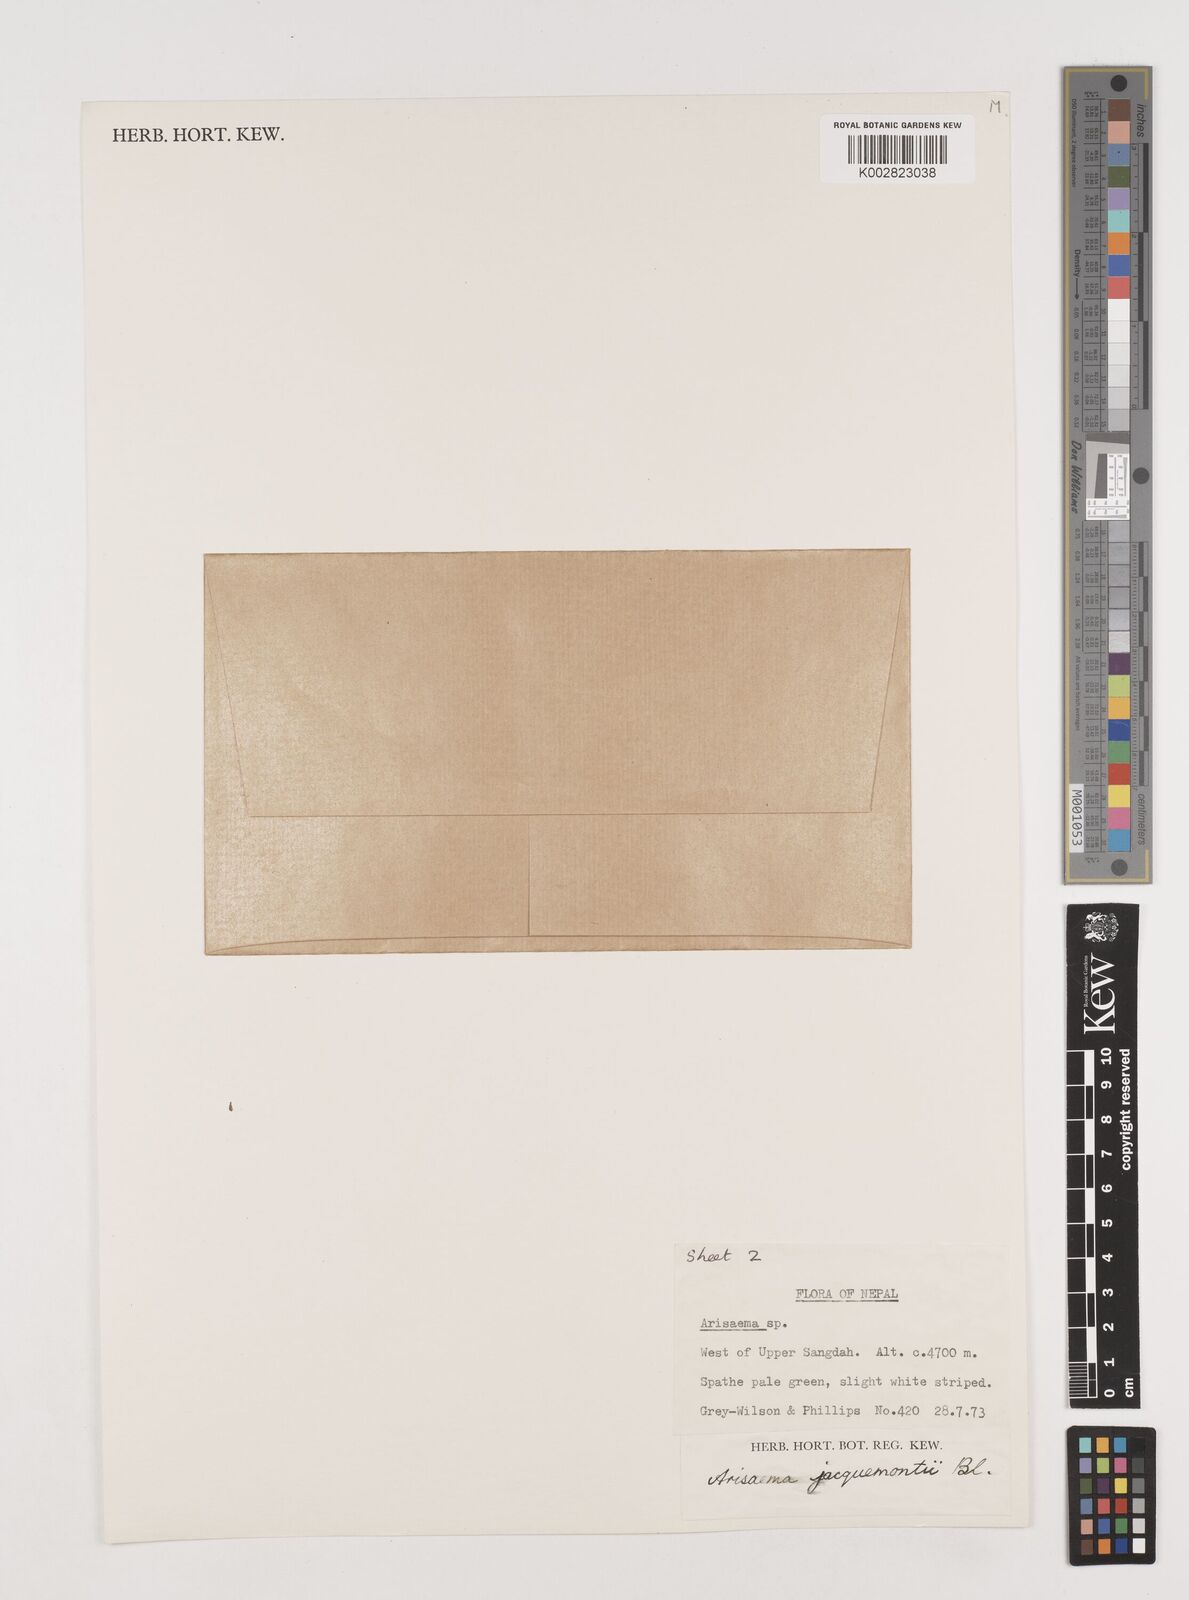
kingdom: Plantae
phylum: Tracheophyta
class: Liliopsida
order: Alismatales
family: Araceae
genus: Arisaema
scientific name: Arisaema jacquemontii
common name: Jacquemont's cobra-lily
